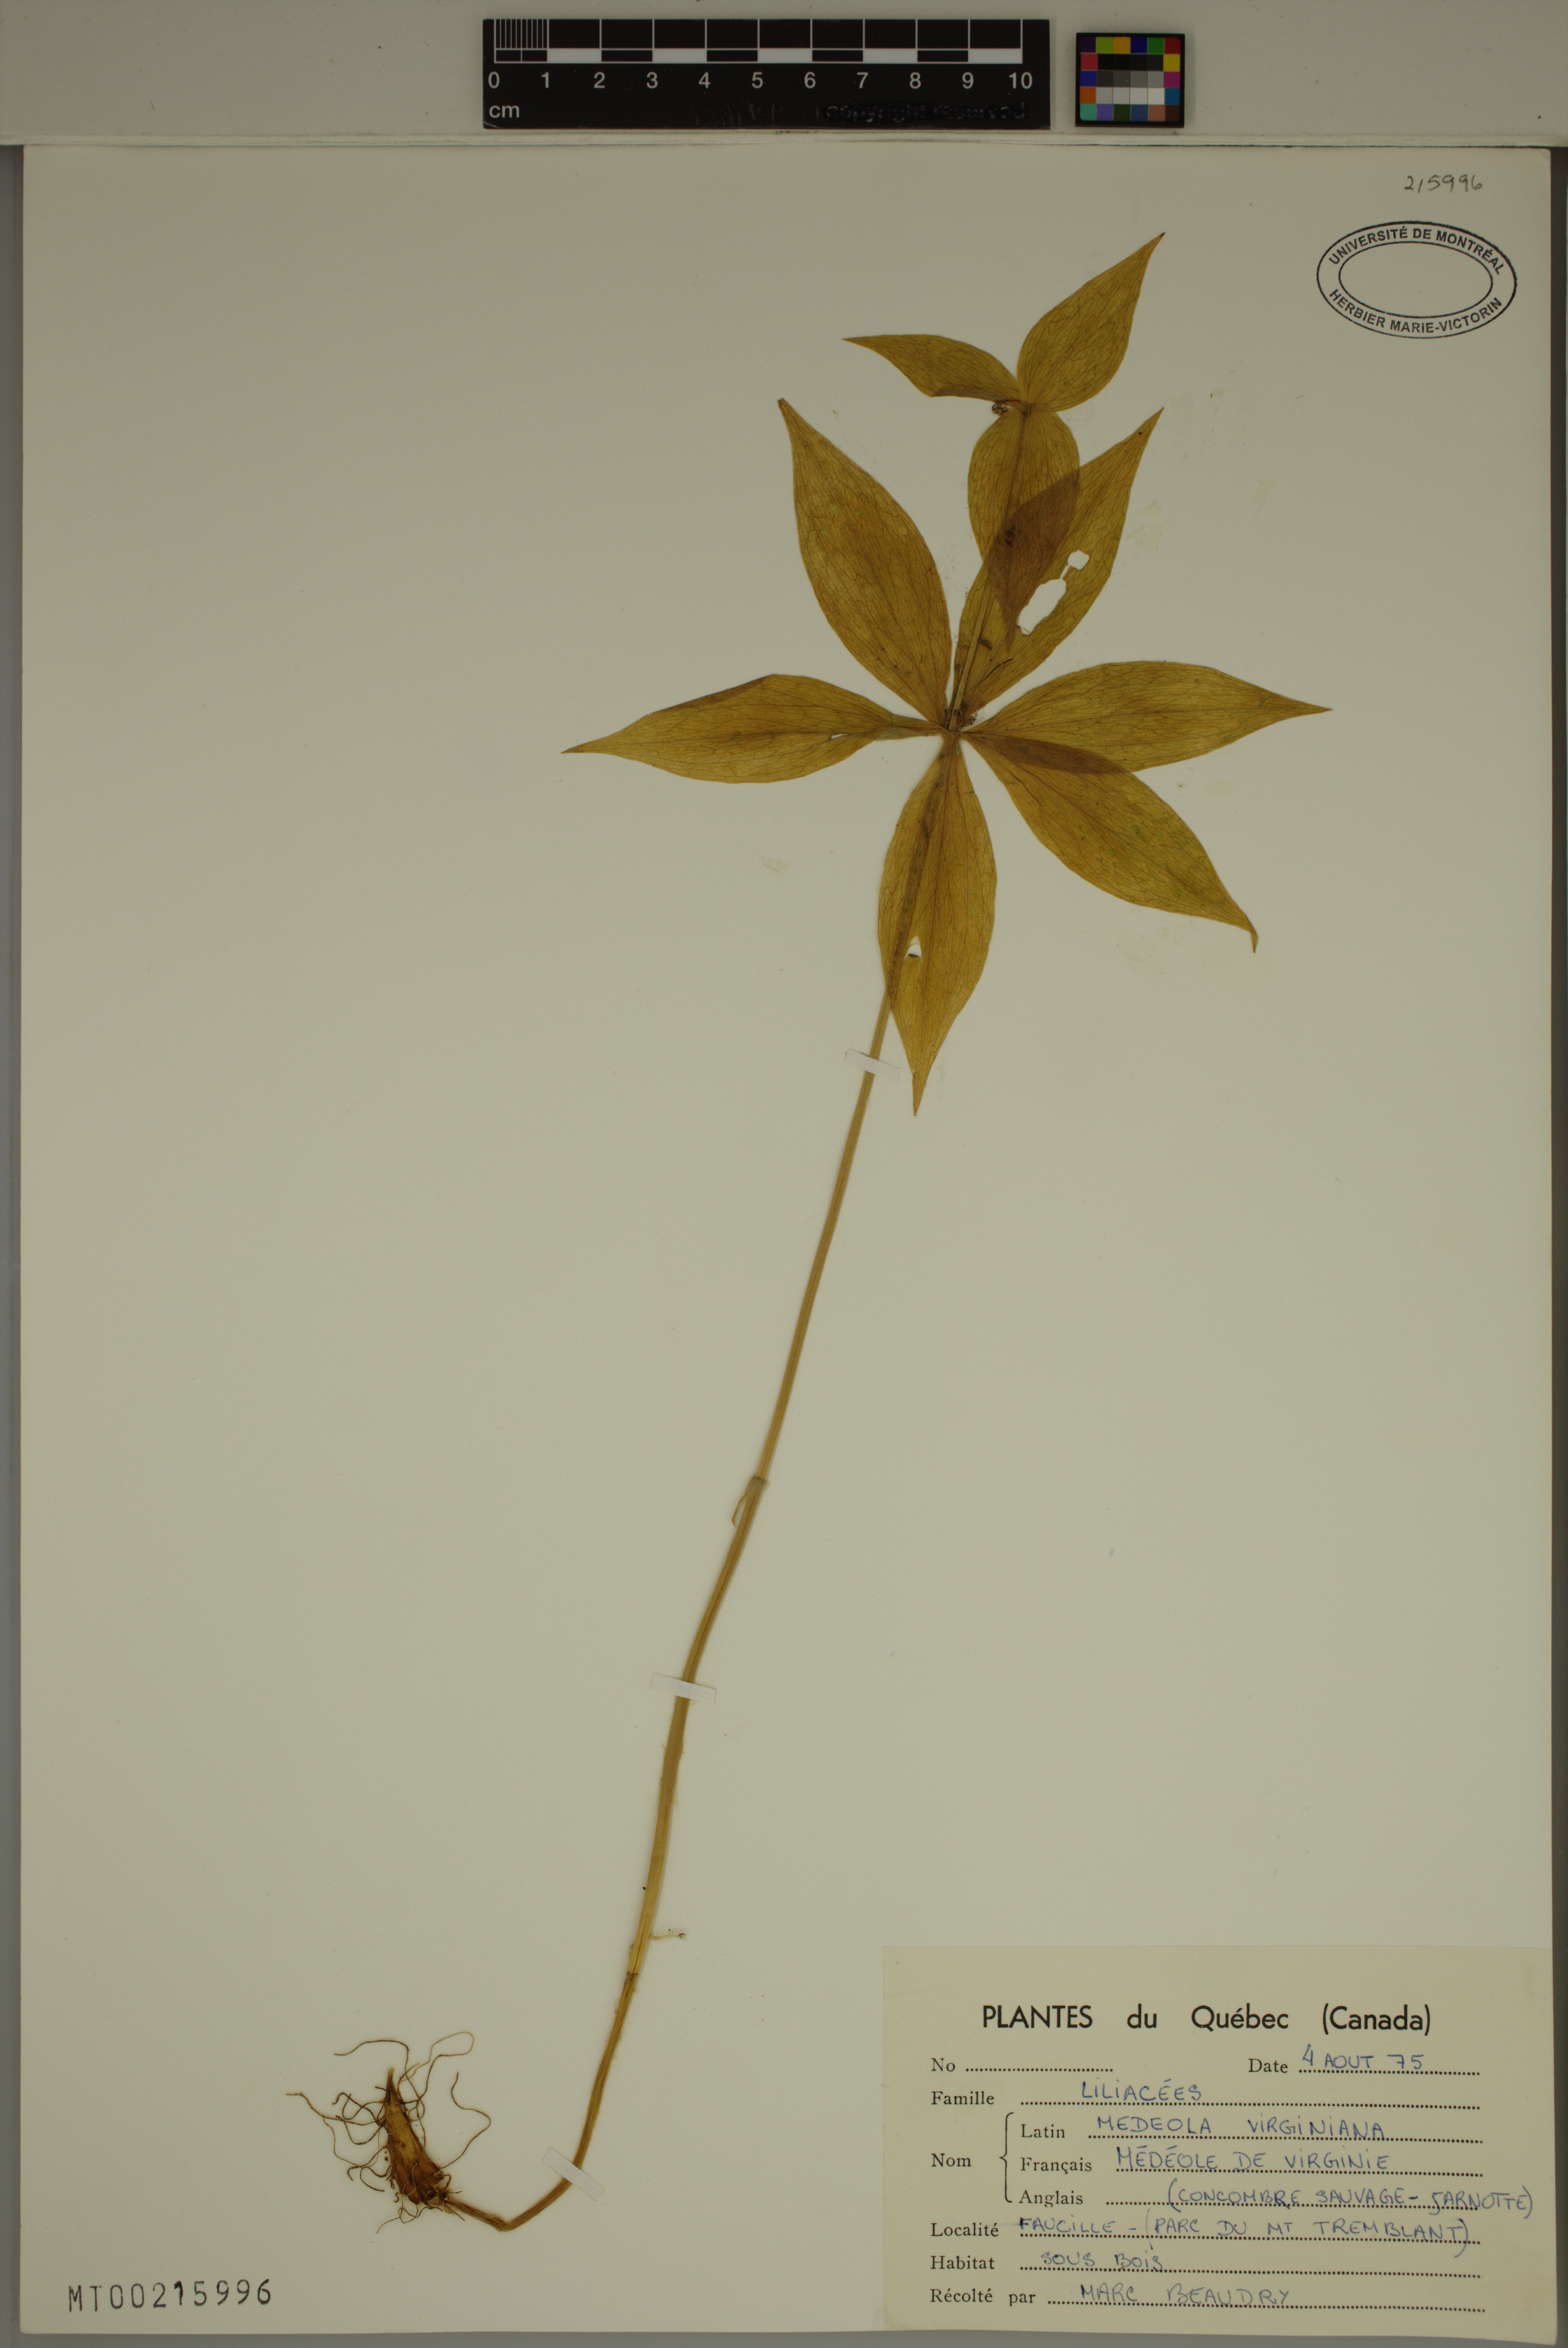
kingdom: Plantae
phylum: Tracheophyta
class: Liliopsida
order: Liliales
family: Liliaceae
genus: Medeola
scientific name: Medeola virginiana
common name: Indian cucumber-root
